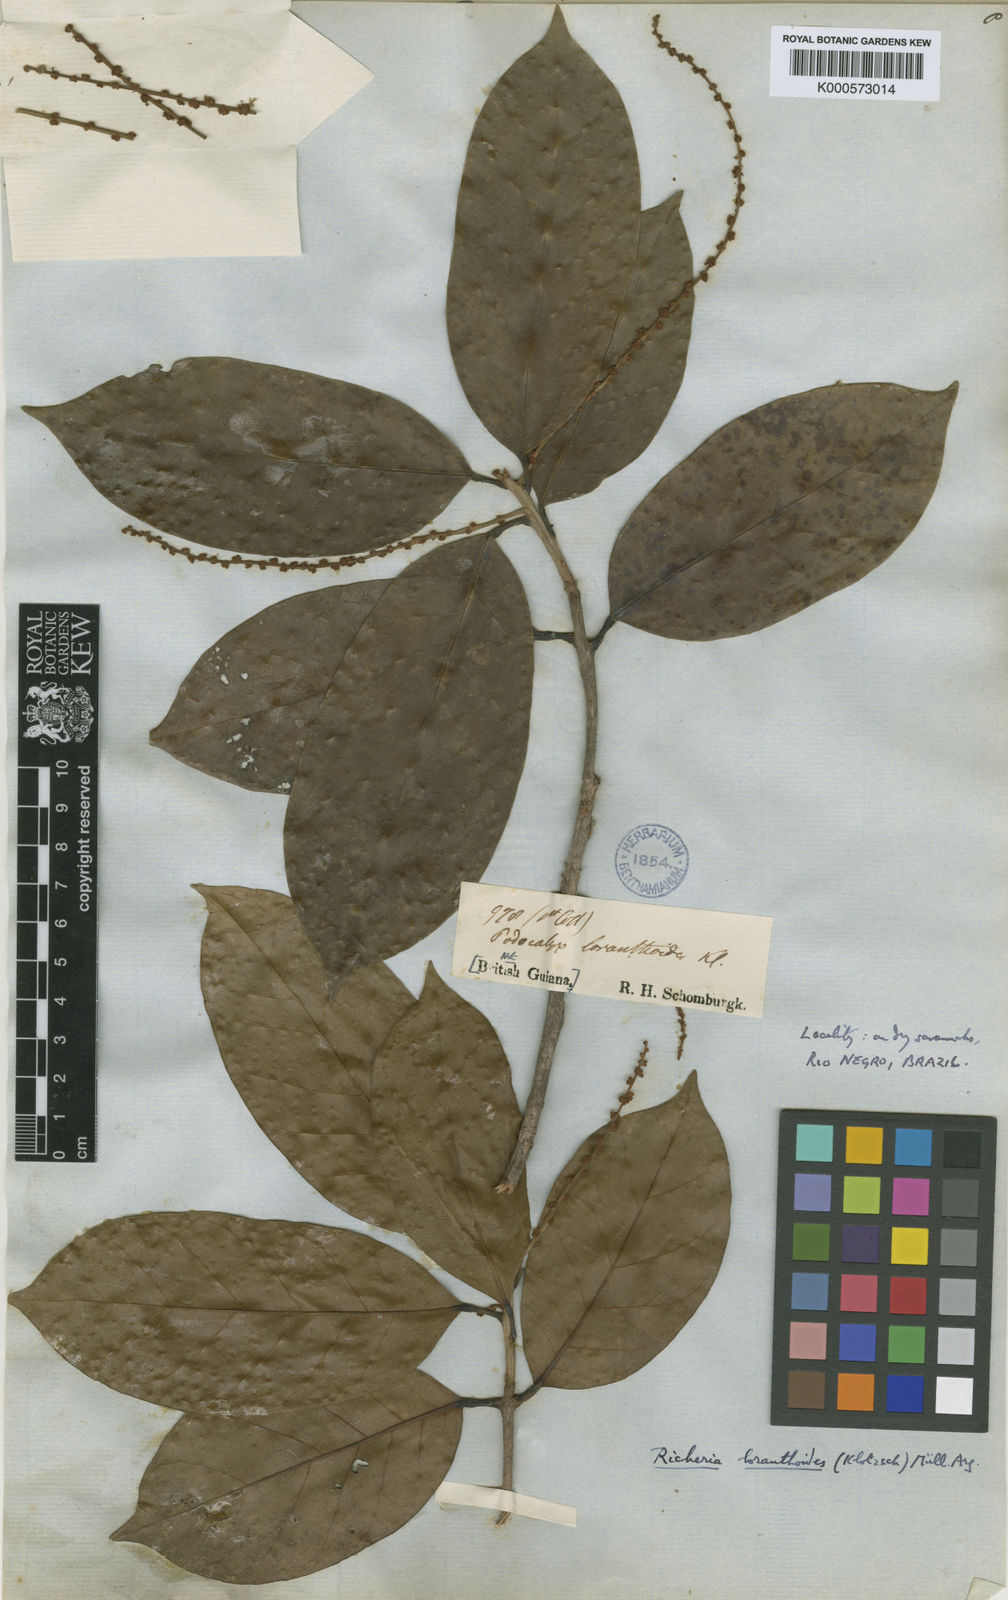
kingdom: Plantae
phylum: Tracheophyta
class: Magnoliopsida
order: Malpighiales
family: Picrodendraceae
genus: Podocalyx
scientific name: Podocalyx loranthoides
